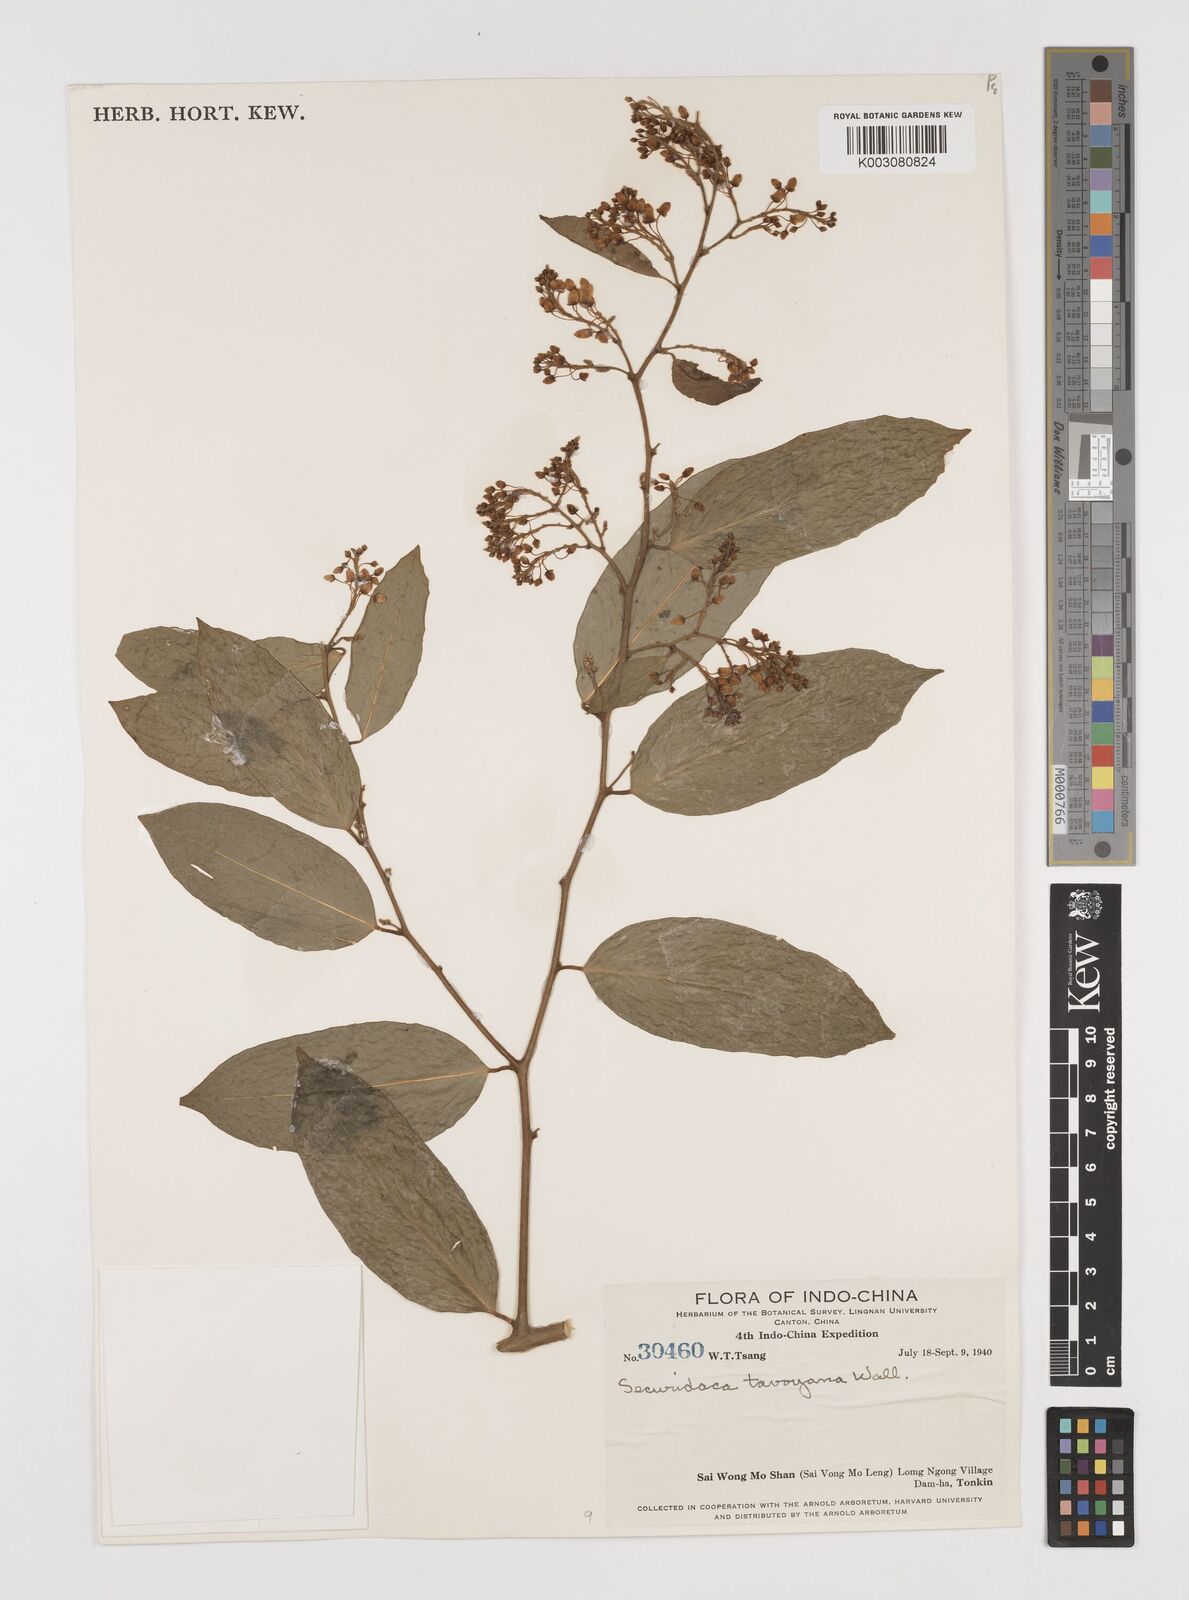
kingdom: Plantae
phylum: Tracheophyta
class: Magnoliopsida
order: Fabales
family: Polygalaceae
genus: Securidaca
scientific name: Securidaca inappendiculata
